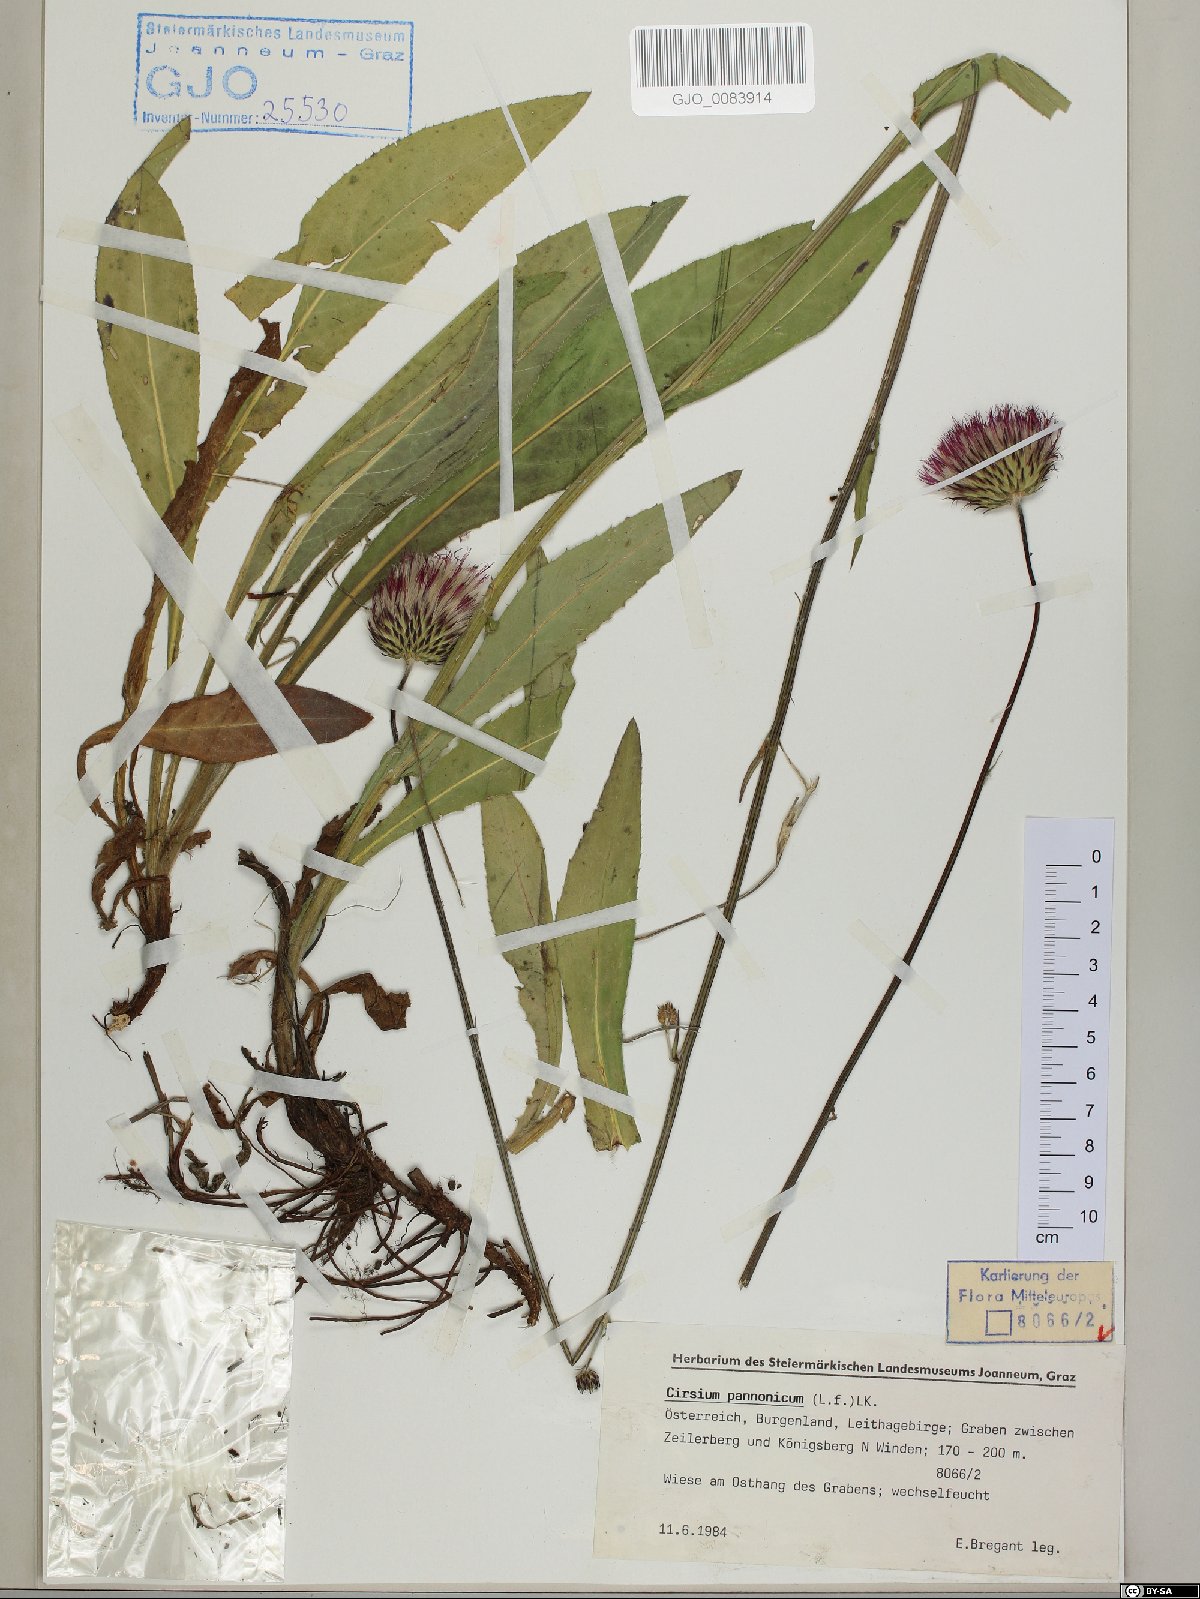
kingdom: Plantae
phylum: Tracheophyta
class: Magnoliopsida
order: Asterales
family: Asteraceae
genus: Cirsium
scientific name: Cirsium pannonicum
